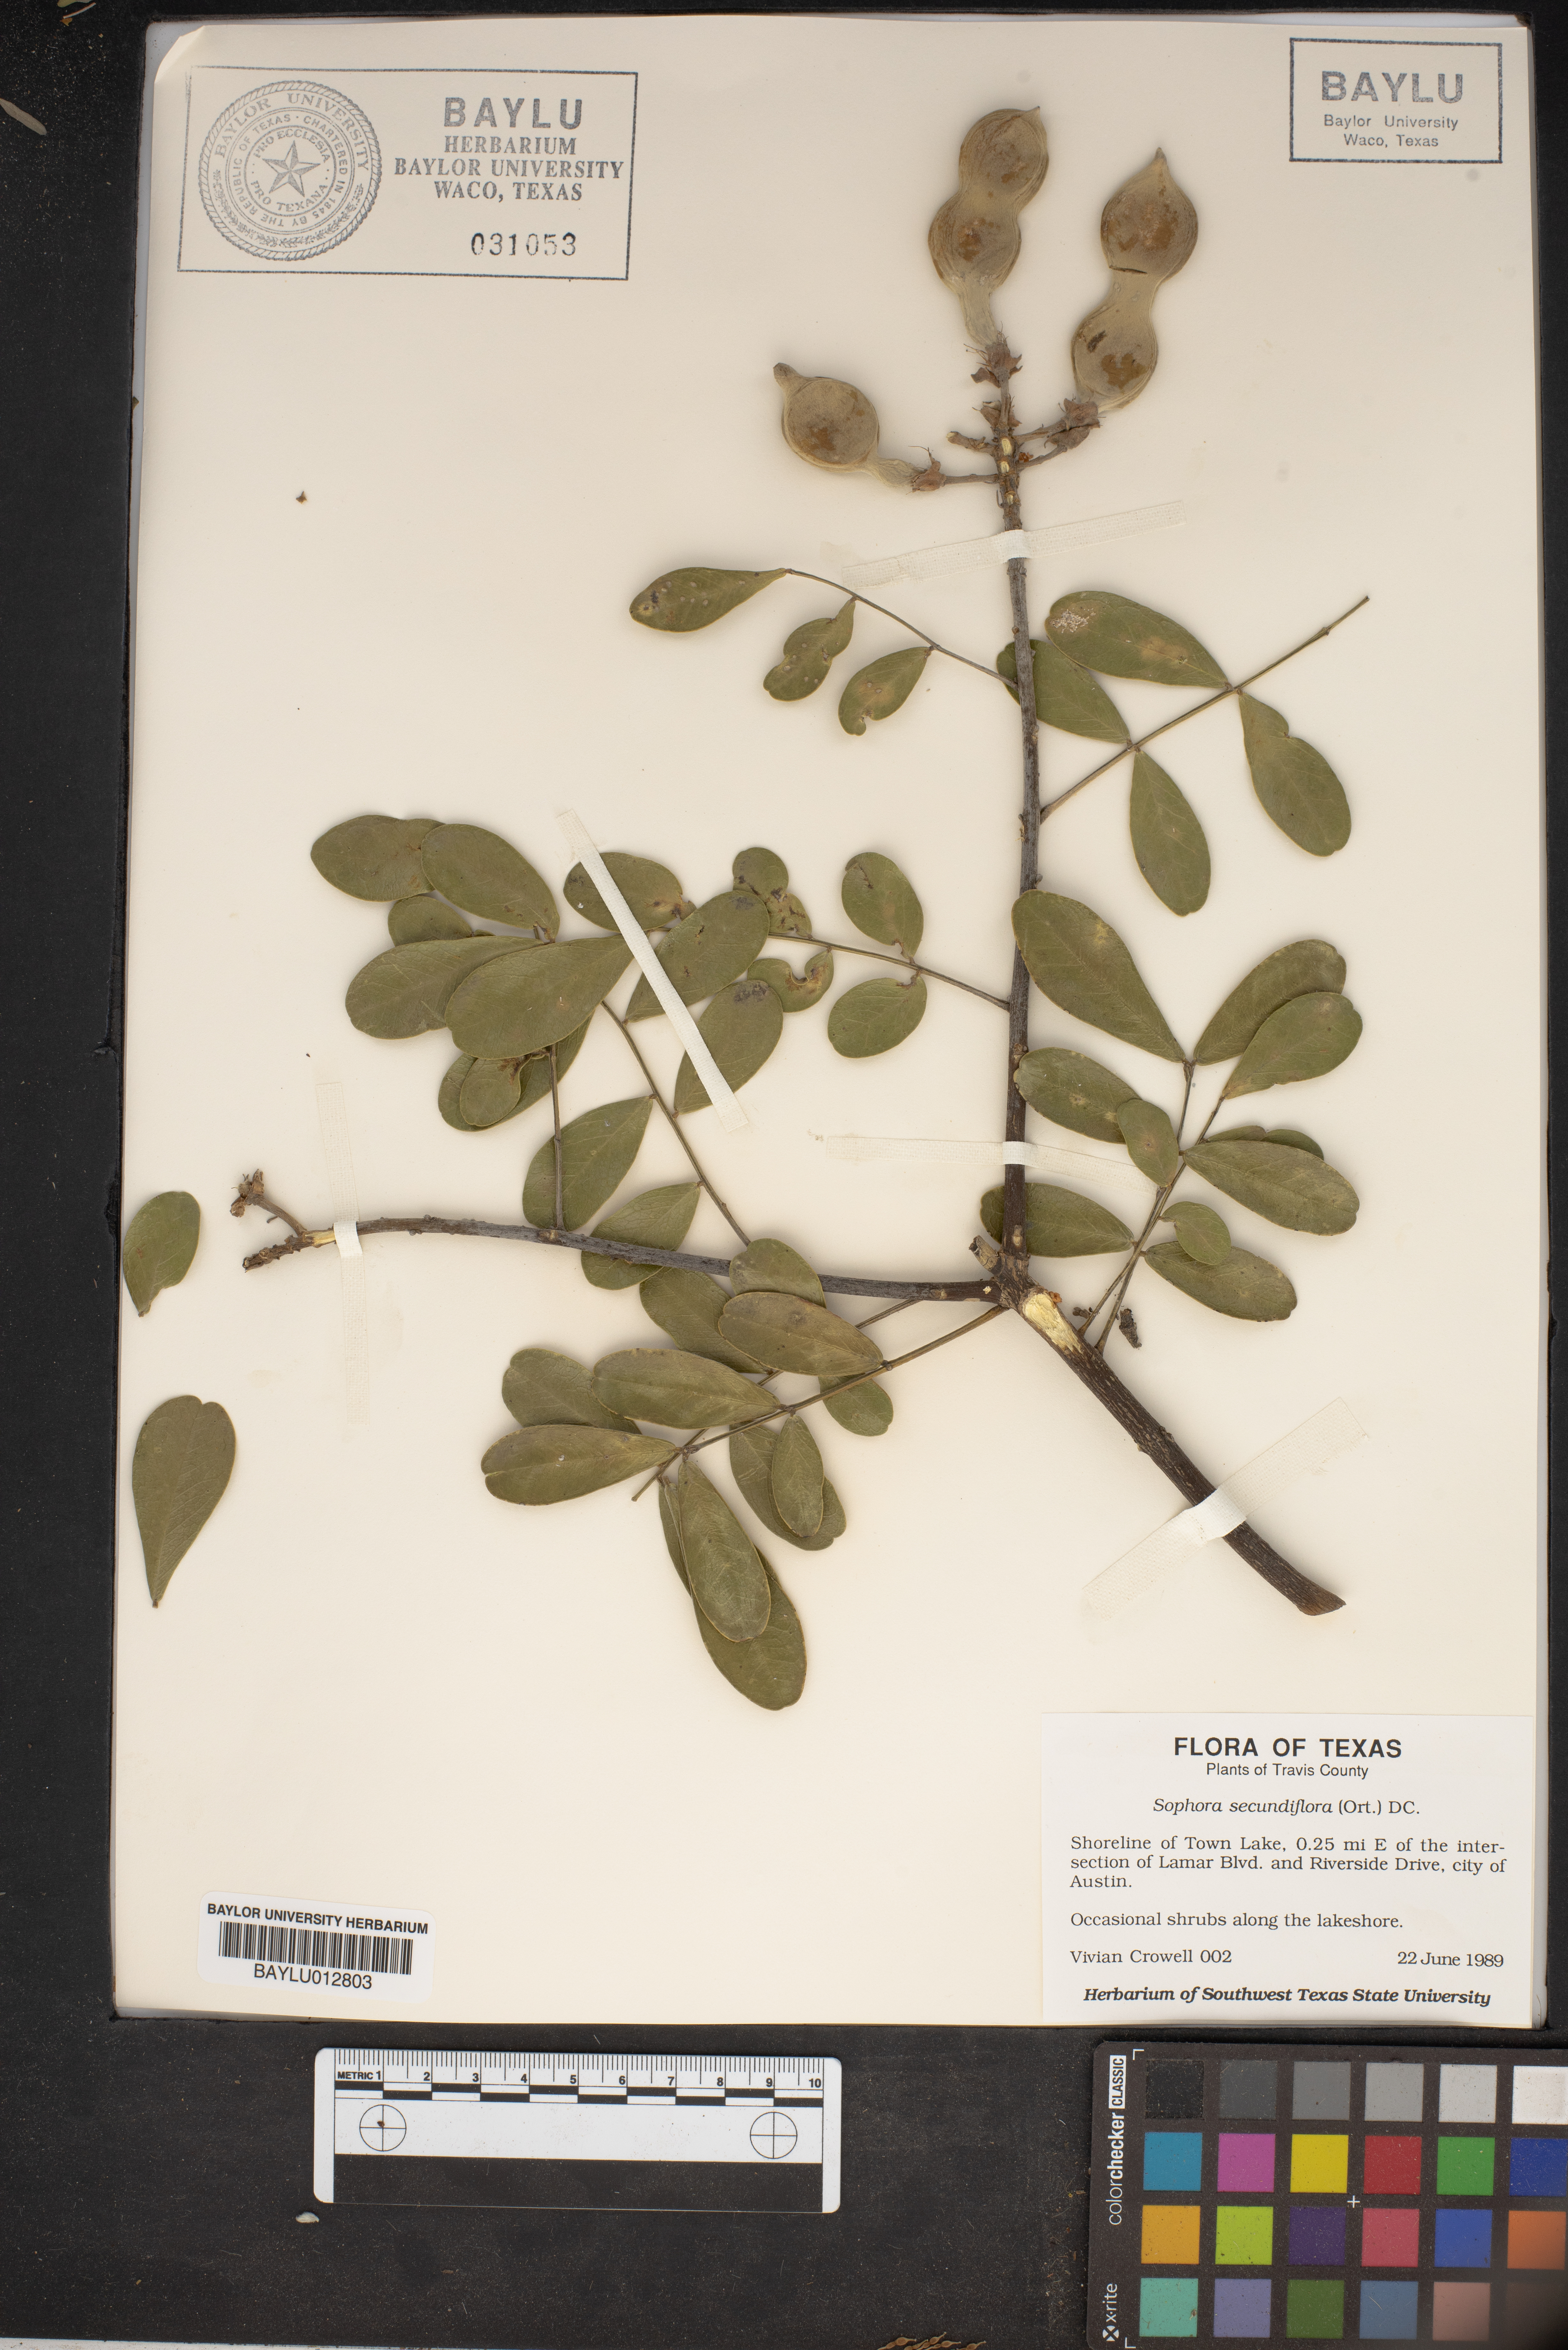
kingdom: Plantae
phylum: Tracheophyta
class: Magnoliopsida
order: Fabales
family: Fabaceae
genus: Dermatophyllum
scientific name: Dermatophyllum secundiflorum
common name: Texas-mountain-laurel
